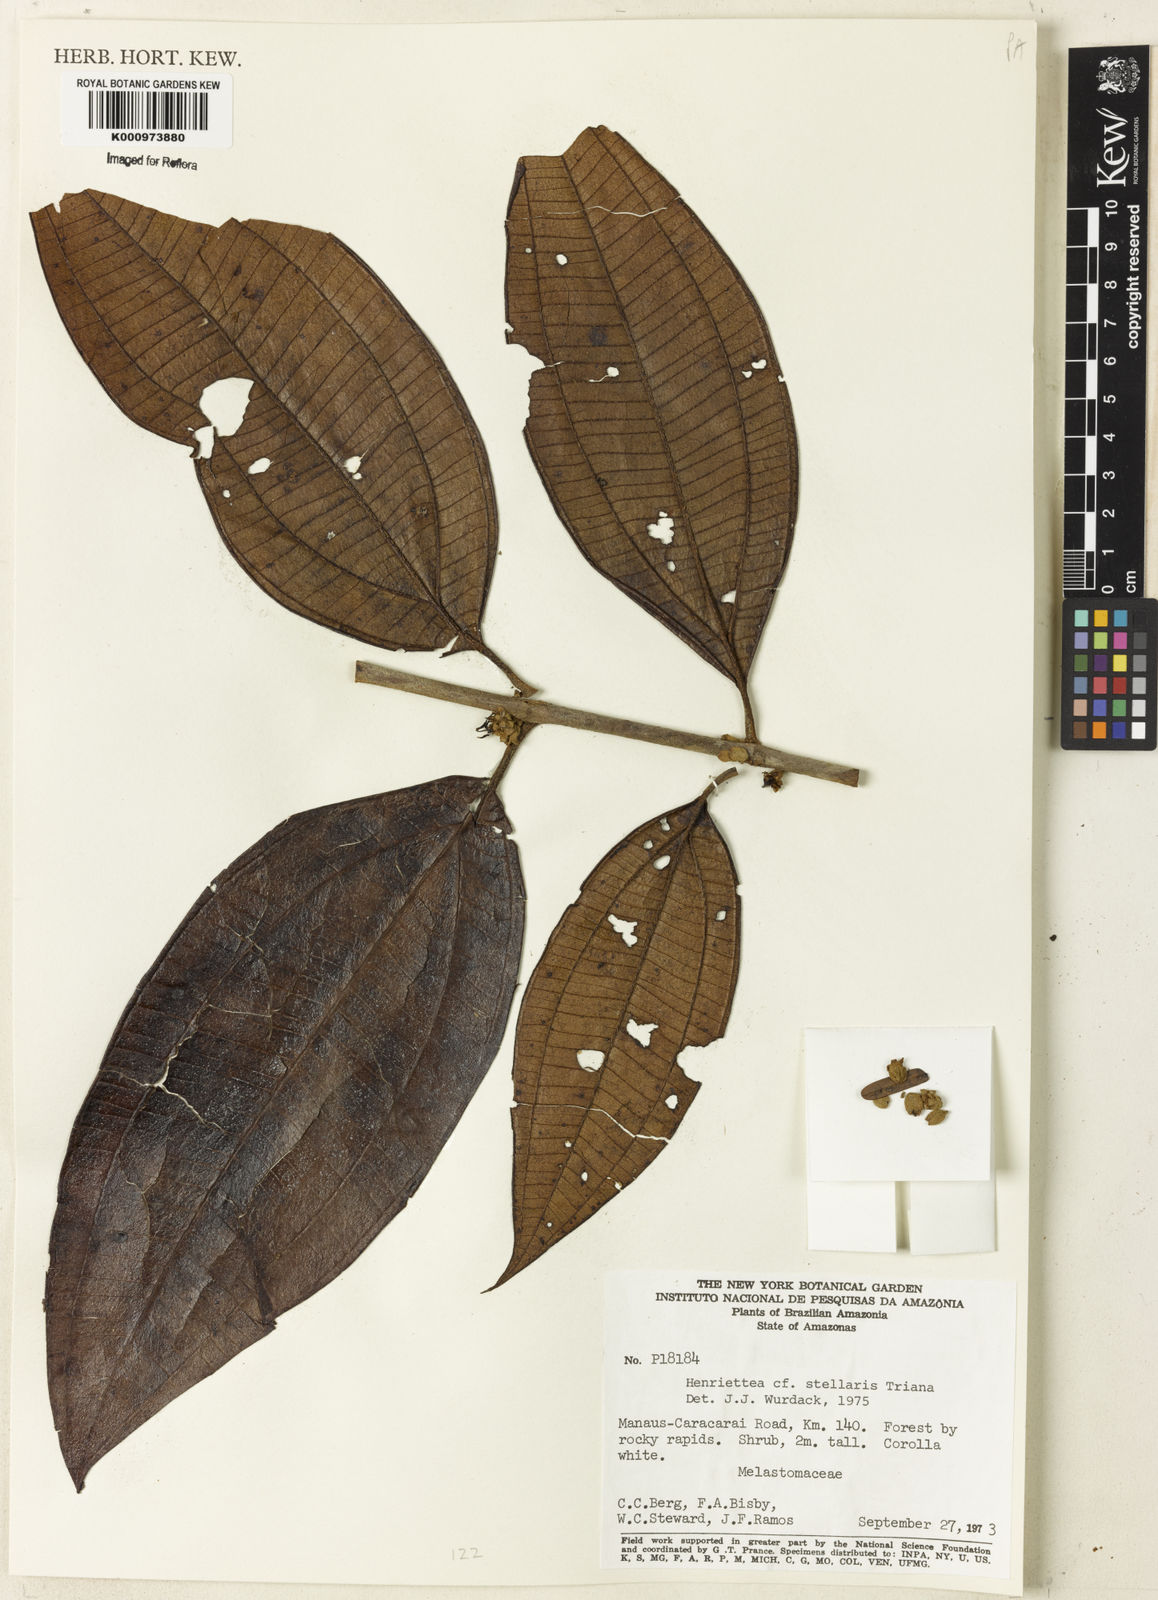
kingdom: Plantae
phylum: Tracheophyta
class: Magnoliopsida
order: Myrtales
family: Melastomataceae
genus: Henriettea
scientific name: Henriettea stellaris
